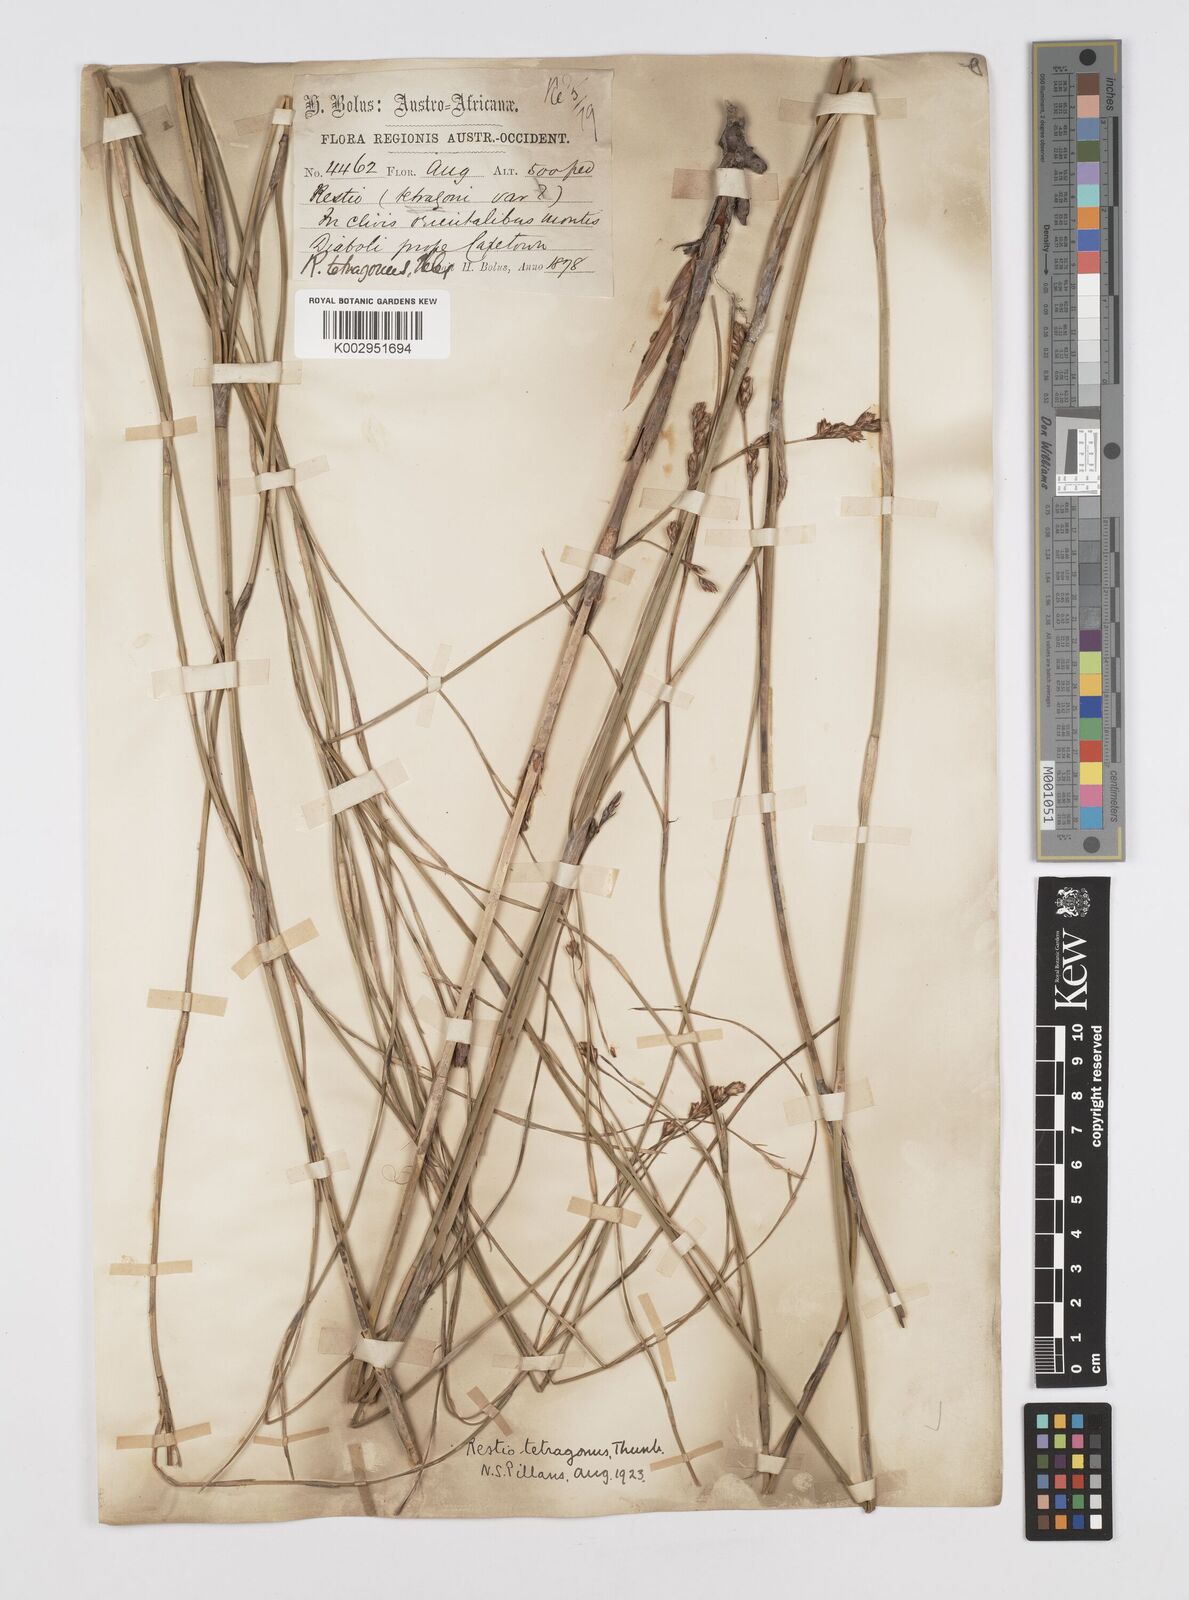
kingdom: Plantae
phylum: Tracheophyta
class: Liliopsida
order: Poales
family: Restionaceae
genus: Restio
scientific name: Restio tetragonus
